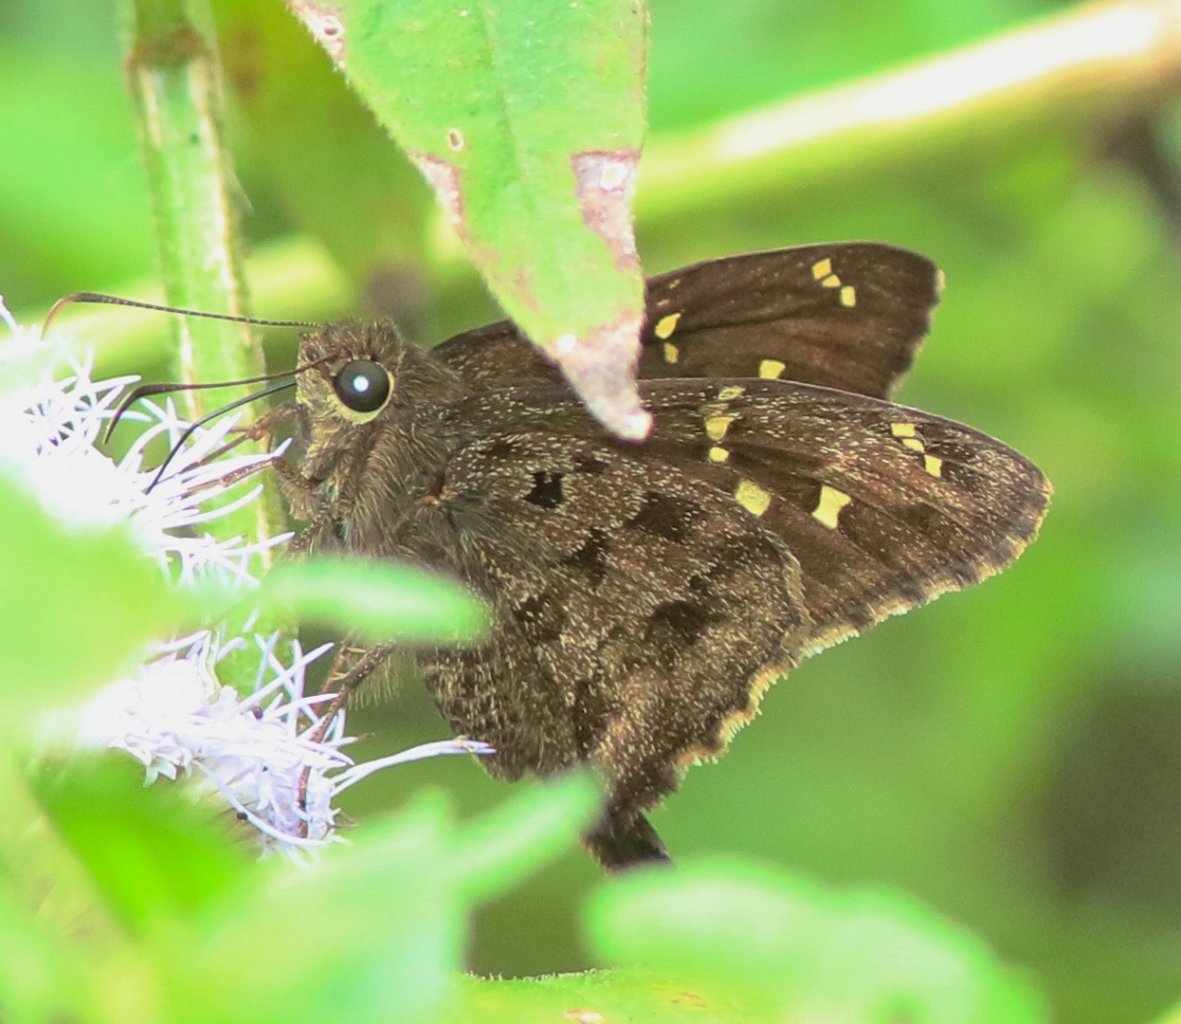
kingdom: Animalia
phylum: Arthropoda
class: Insecta
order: Lepidoptera
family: Hesperiidae
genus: Urbanus
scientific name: Urbanus dorantes
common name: Dorantes Longtail
